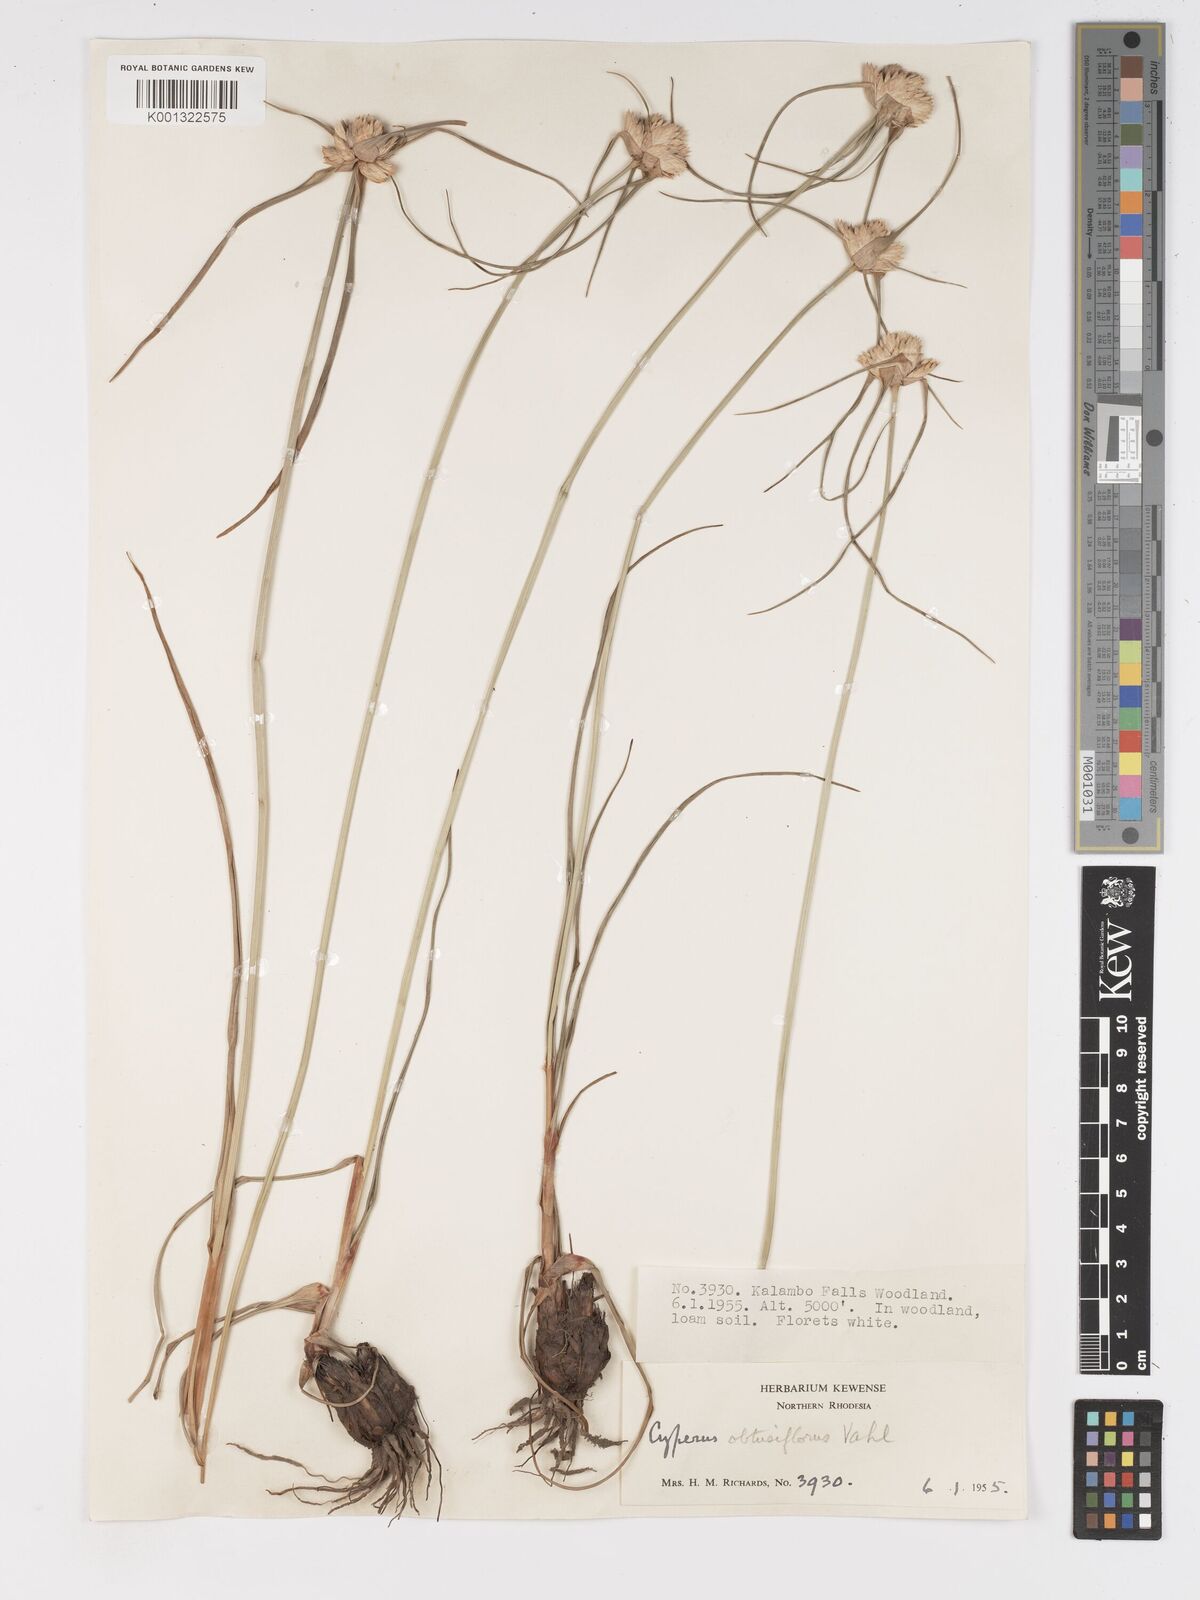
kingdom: Plantae
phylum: Tracheophyta
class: Liliopsida
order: Poales
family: Cyperaceae
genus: Cyperus
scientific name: Cyperus niveus
